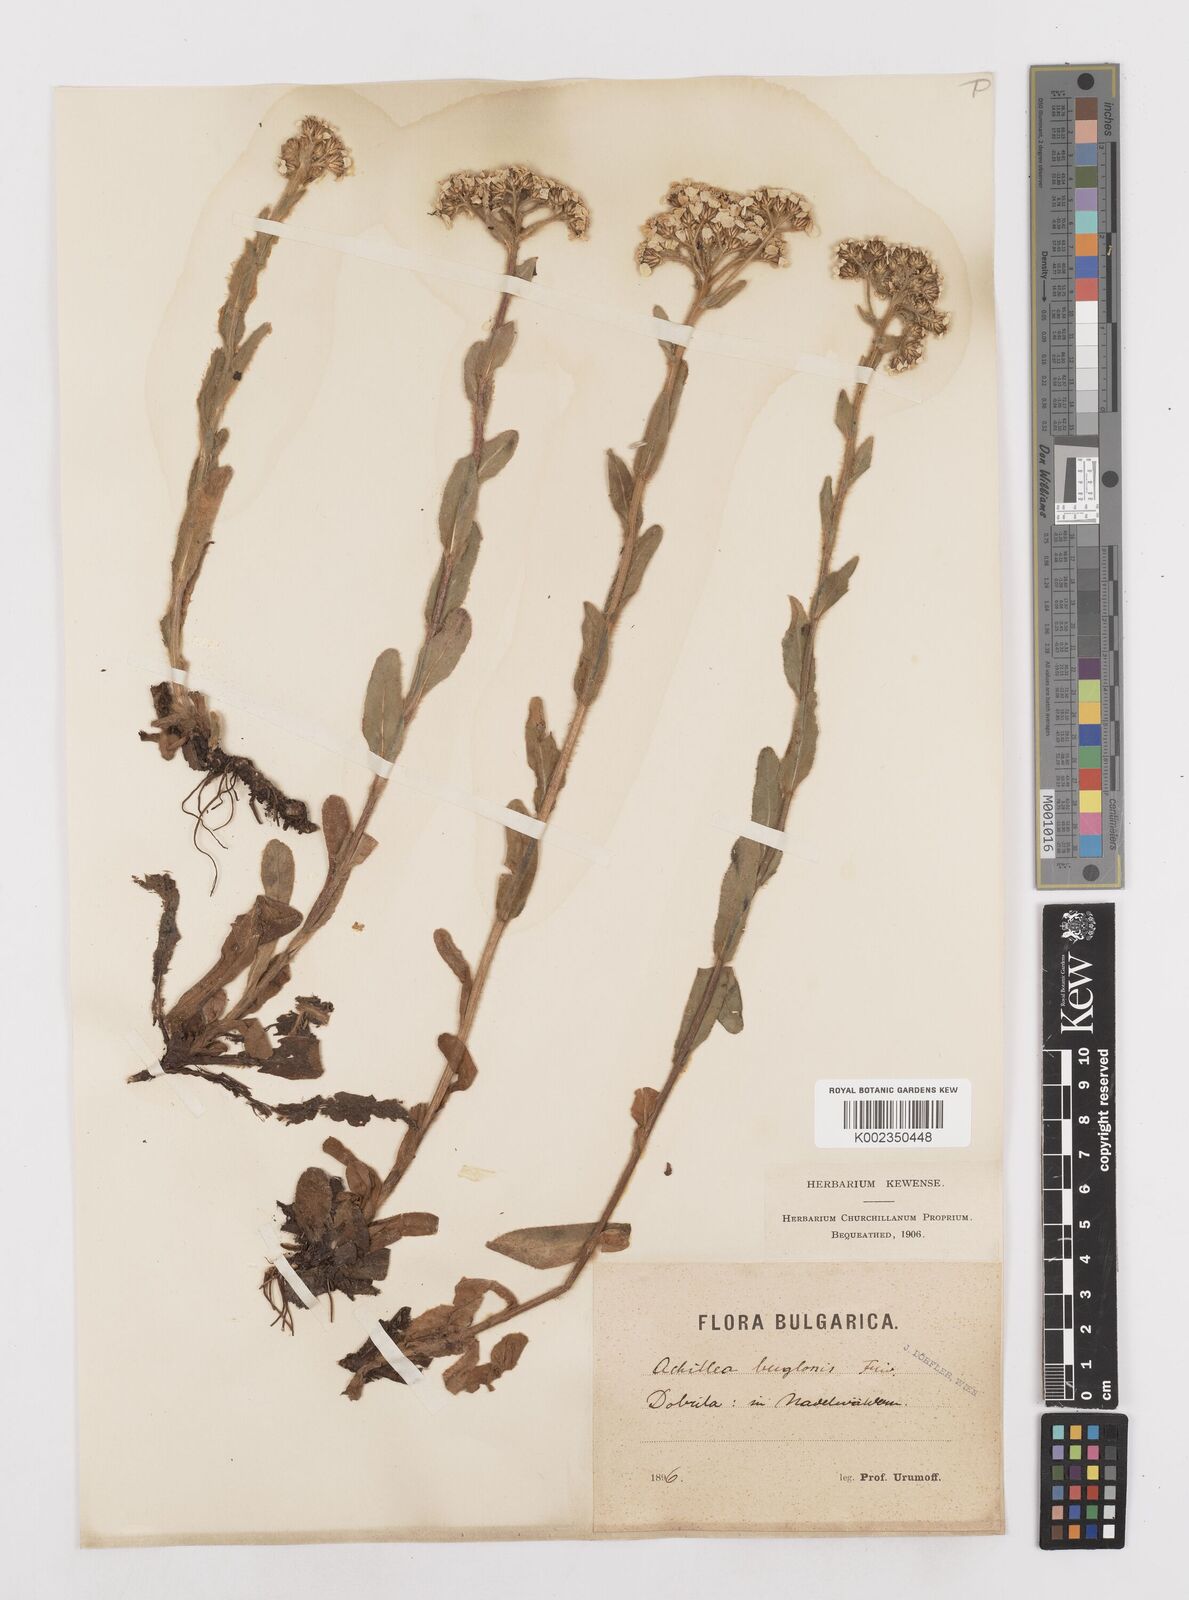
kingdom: Plantae
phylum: Tracheophyta
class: Magnoliopsida
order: Asterales
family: Asteraceae
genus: Achillea
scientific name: Achillea lingulata
